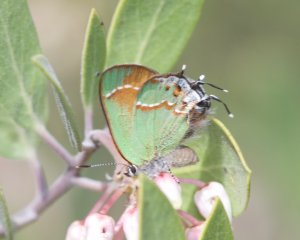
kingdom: Animalia
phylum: Arthropoda
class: Insecta
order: Lepidoptera
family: Lycaenidae
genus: Mitoura
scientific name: Mitoura gryneus
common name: Juniper Hairstreak
